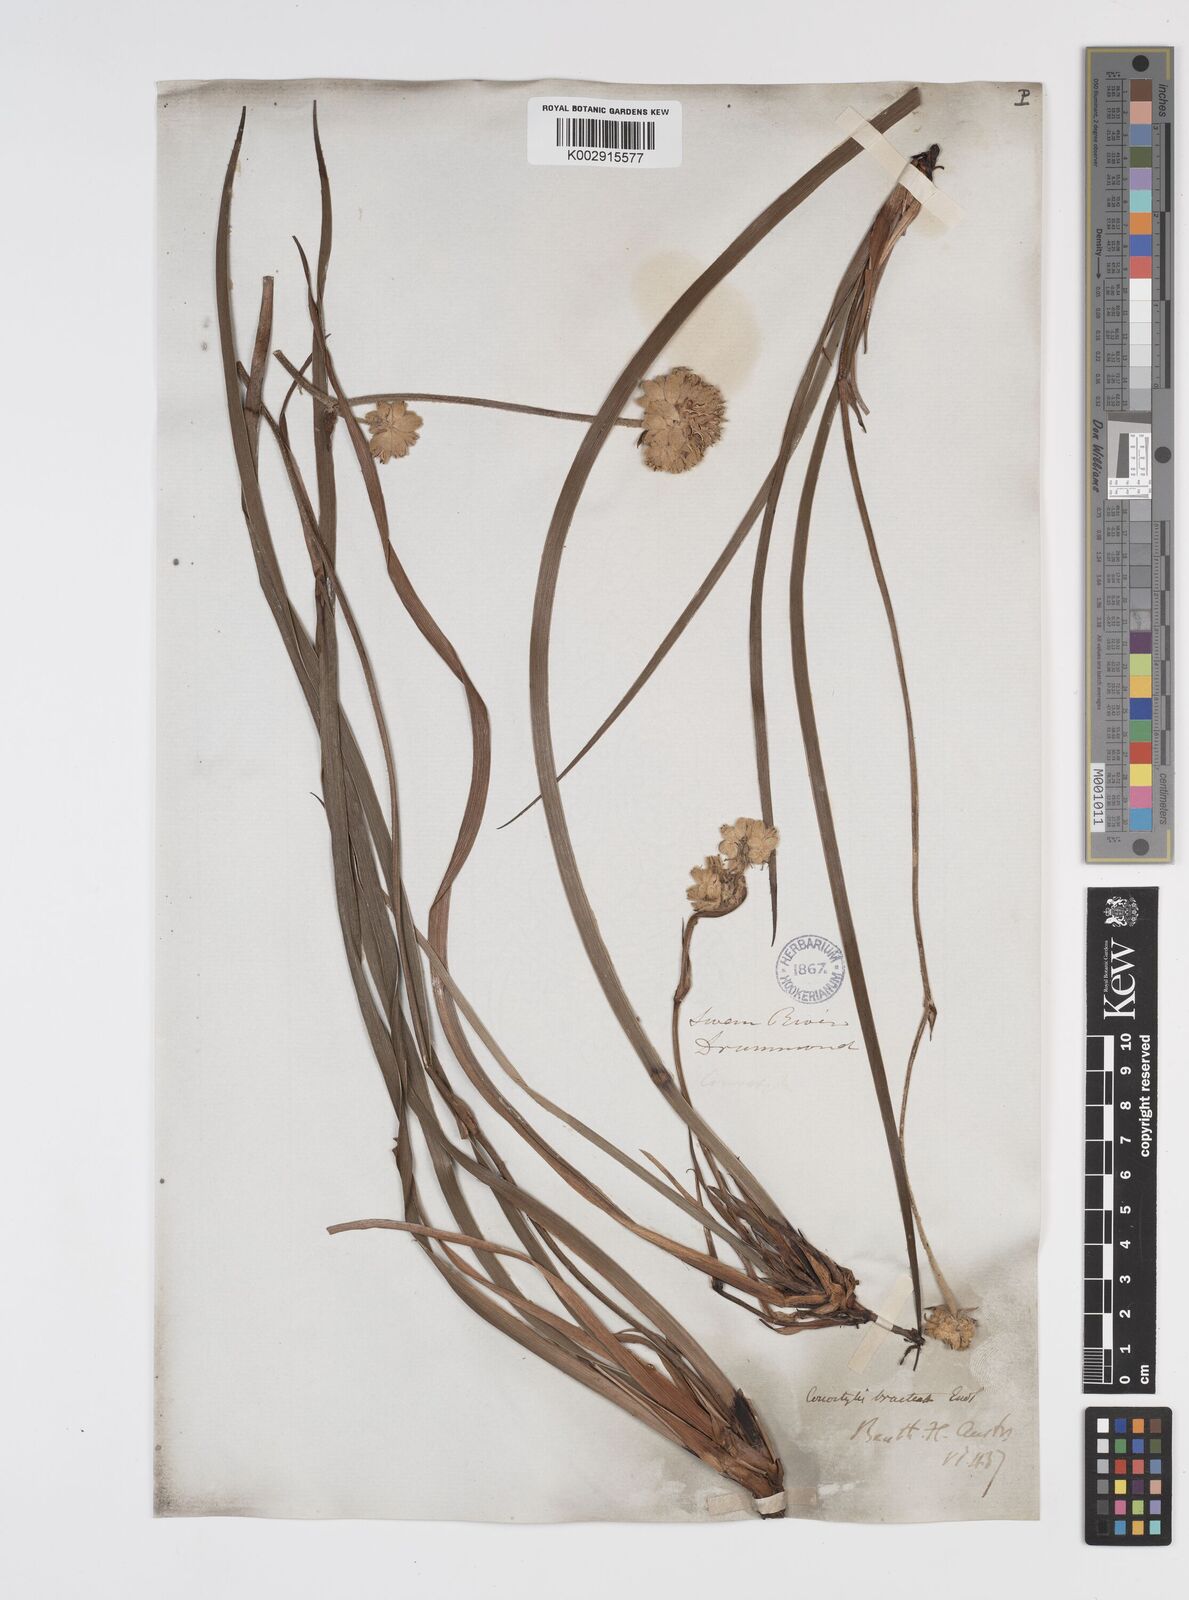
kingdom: Plantae
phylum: Tracheophyta
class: Liliopsida
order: Commelinales
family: Haemodoraceae
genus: Conostylis
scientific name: Conostylis bracteata
